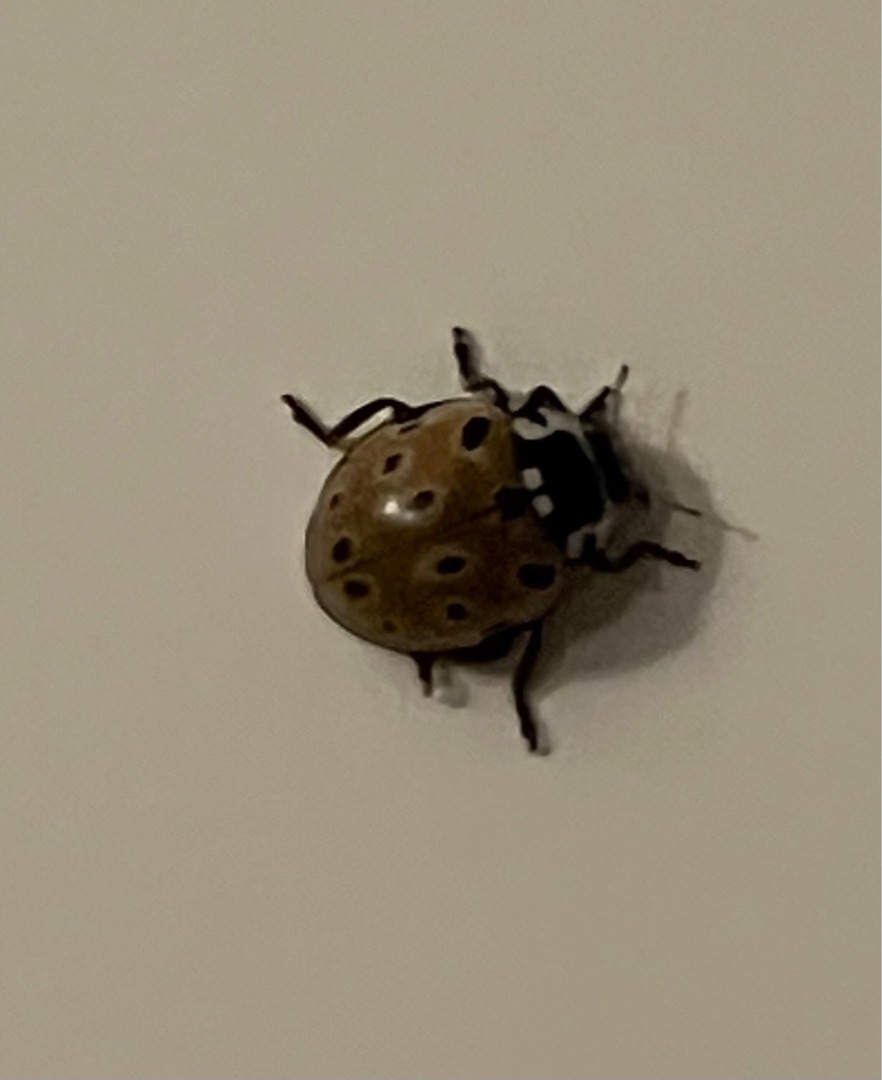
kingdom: Animalia
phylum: Arthropoda
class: Insecta
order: Coleoptera
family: Coccinellidae
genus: Anatis
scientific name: Anatis ocellata
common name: Øjeplettet mariehøne
